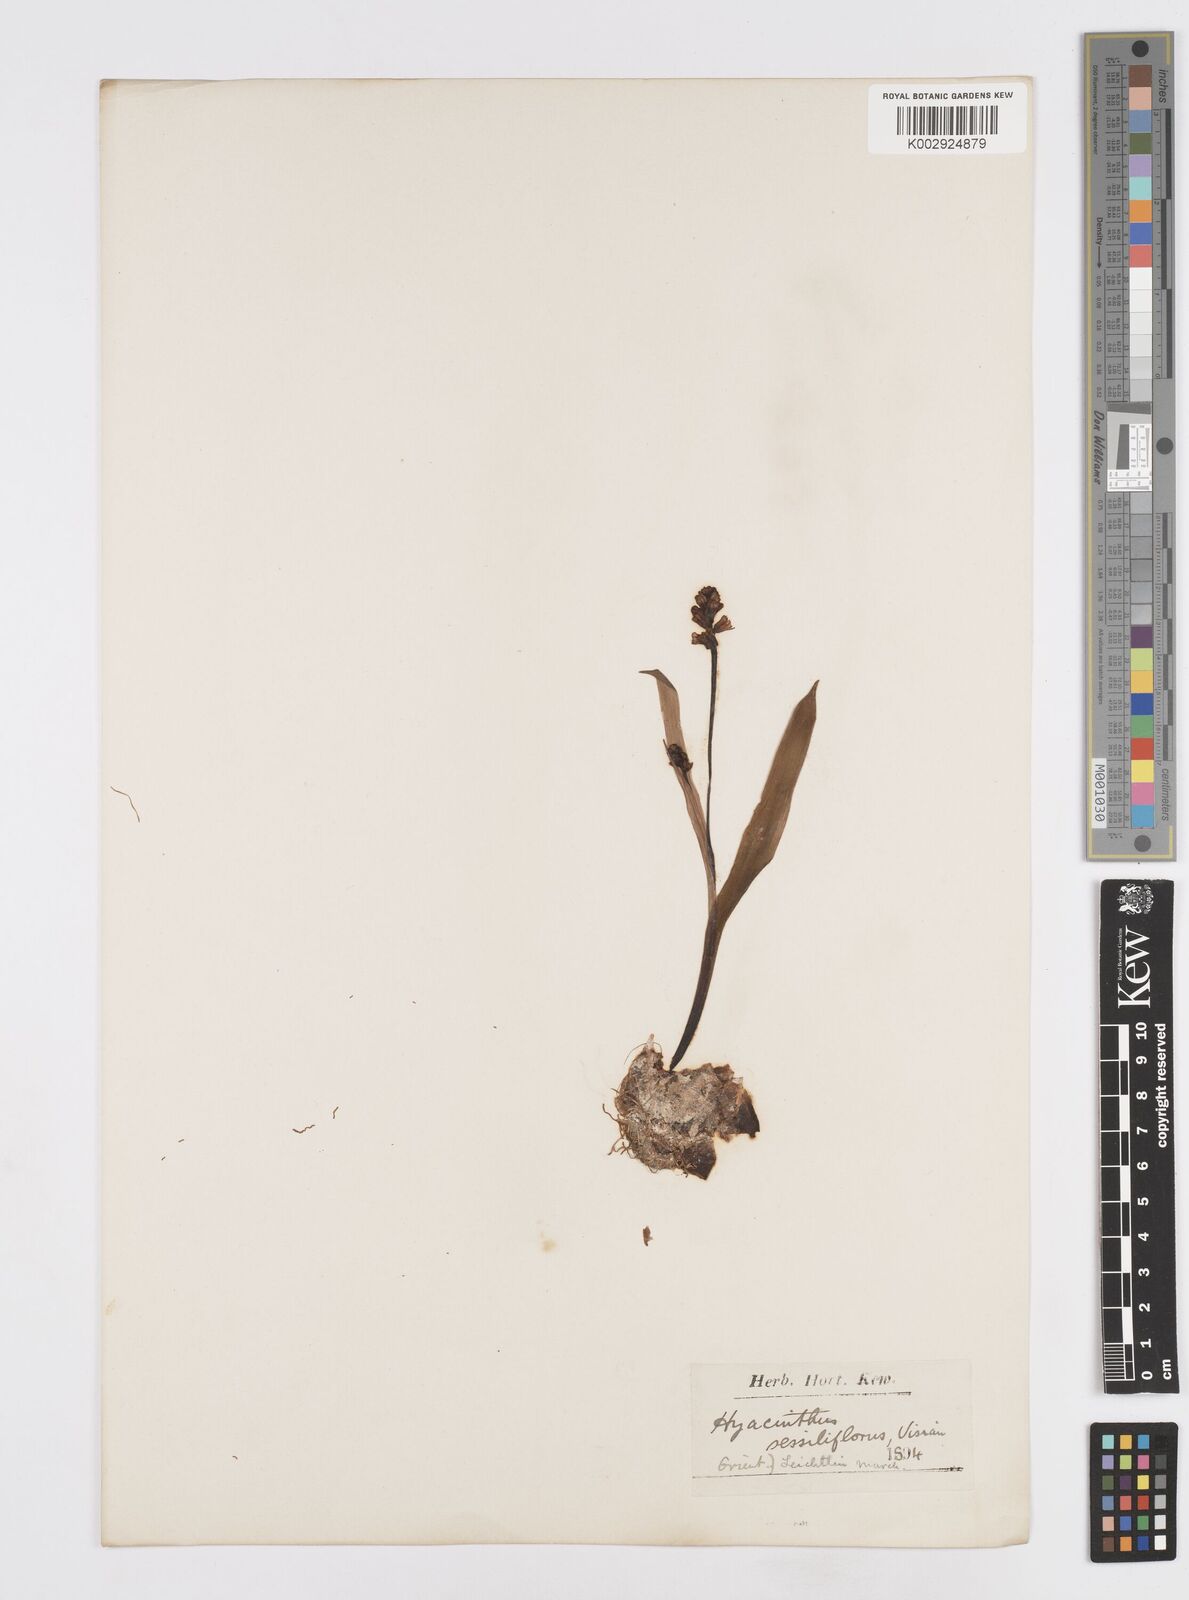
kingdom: Plantae
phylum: Tracheophyta
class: Liliopsida
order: Asparagales
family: Asparagaceae
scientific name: Asparagaceae
